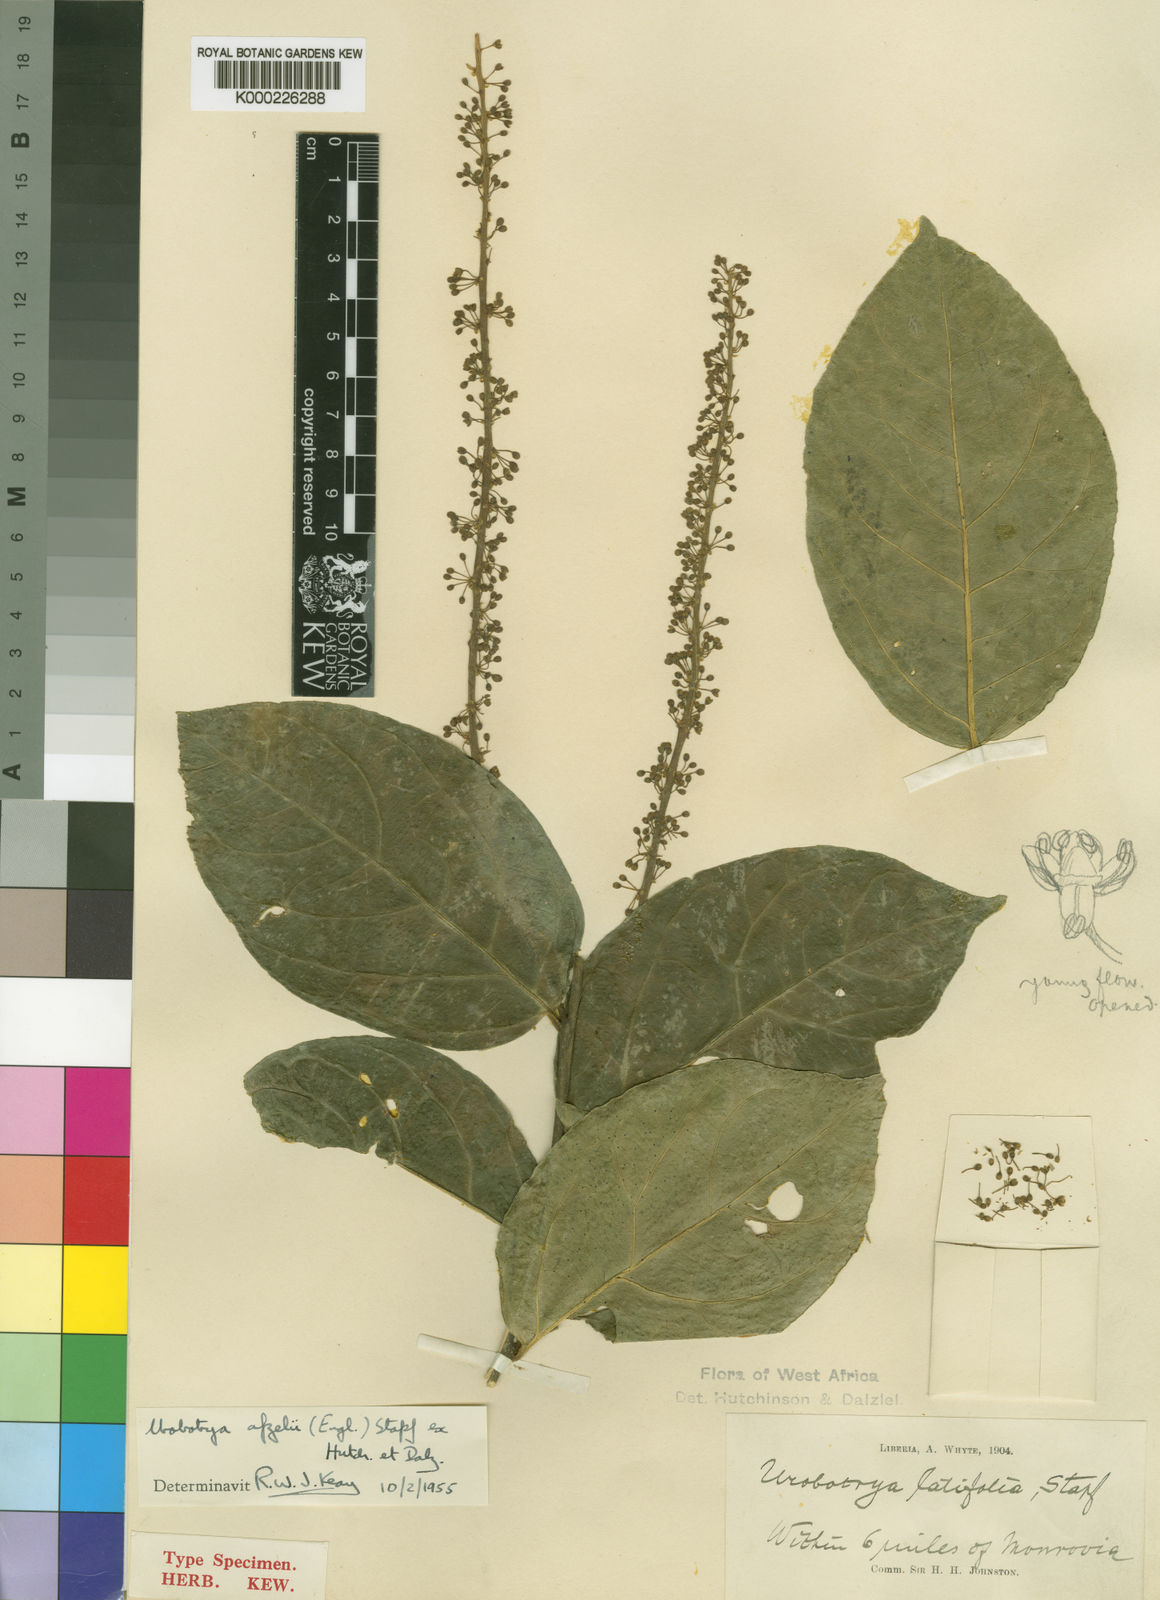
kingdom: Plantae
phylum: Tracheophyta
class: Magnoliopsida
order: Santalales
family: Opiliaceae
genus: Urobotrya
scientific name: Urobotrya congolana
